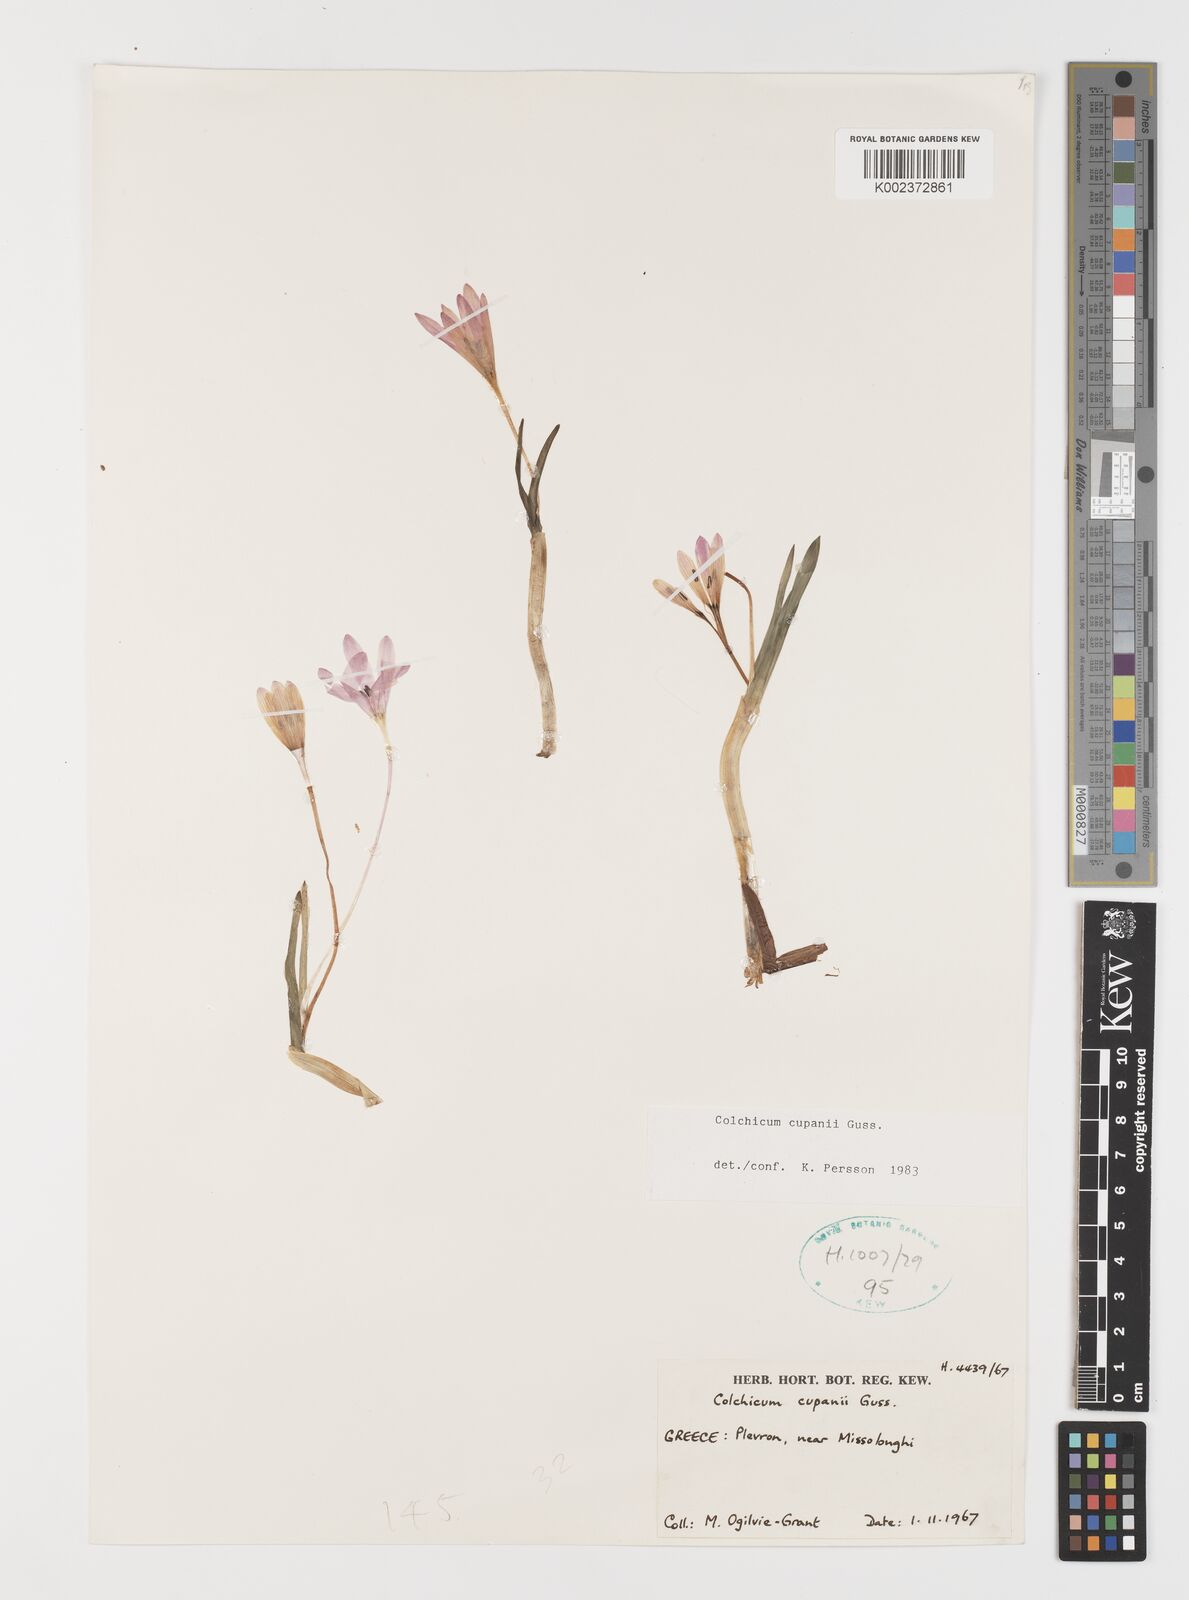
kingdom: Plantae
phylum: Tracheophyta
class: Liliopsida
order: Liliales
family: Colchicaceae
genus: Colchicum
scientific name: Colchicum cupanii
